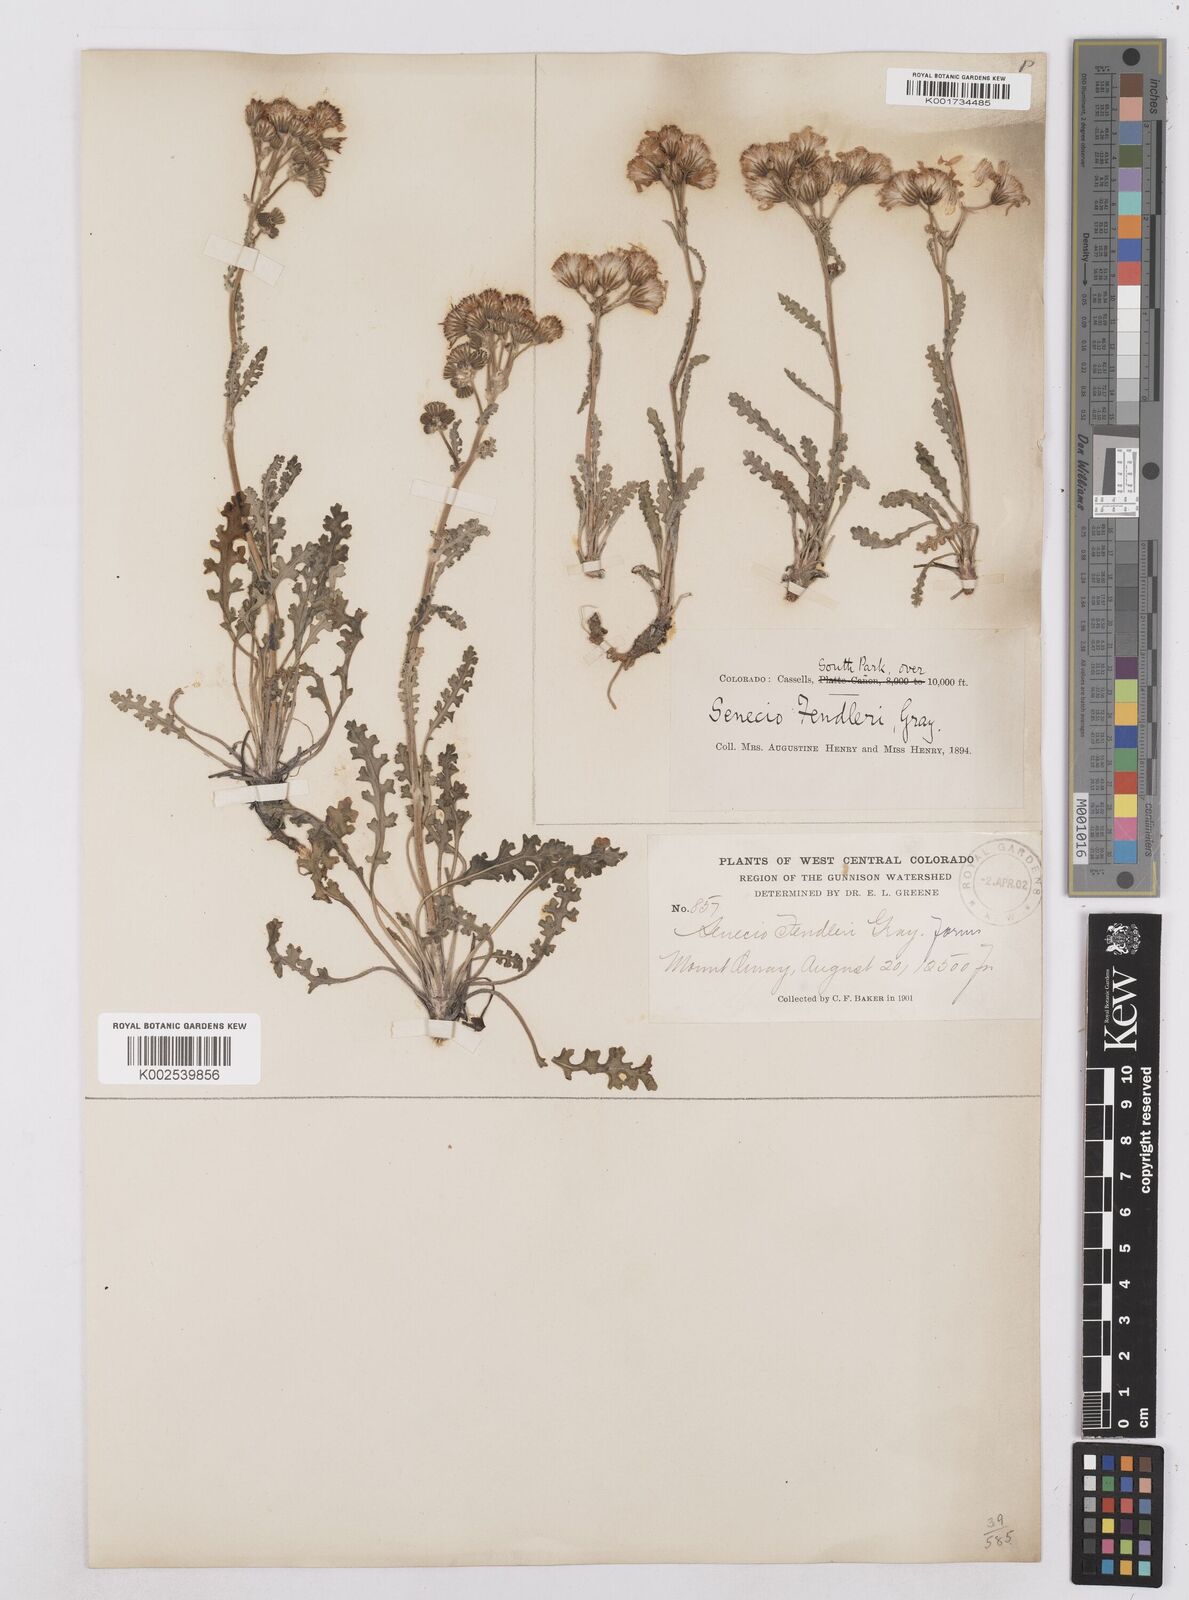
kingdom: Plantae
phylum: Tracheophyta
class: Magnoliopsida
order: Asterales
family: Asteraceae
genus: Packera
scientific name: Packera fendleri
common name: Notch-leaf butterweed
